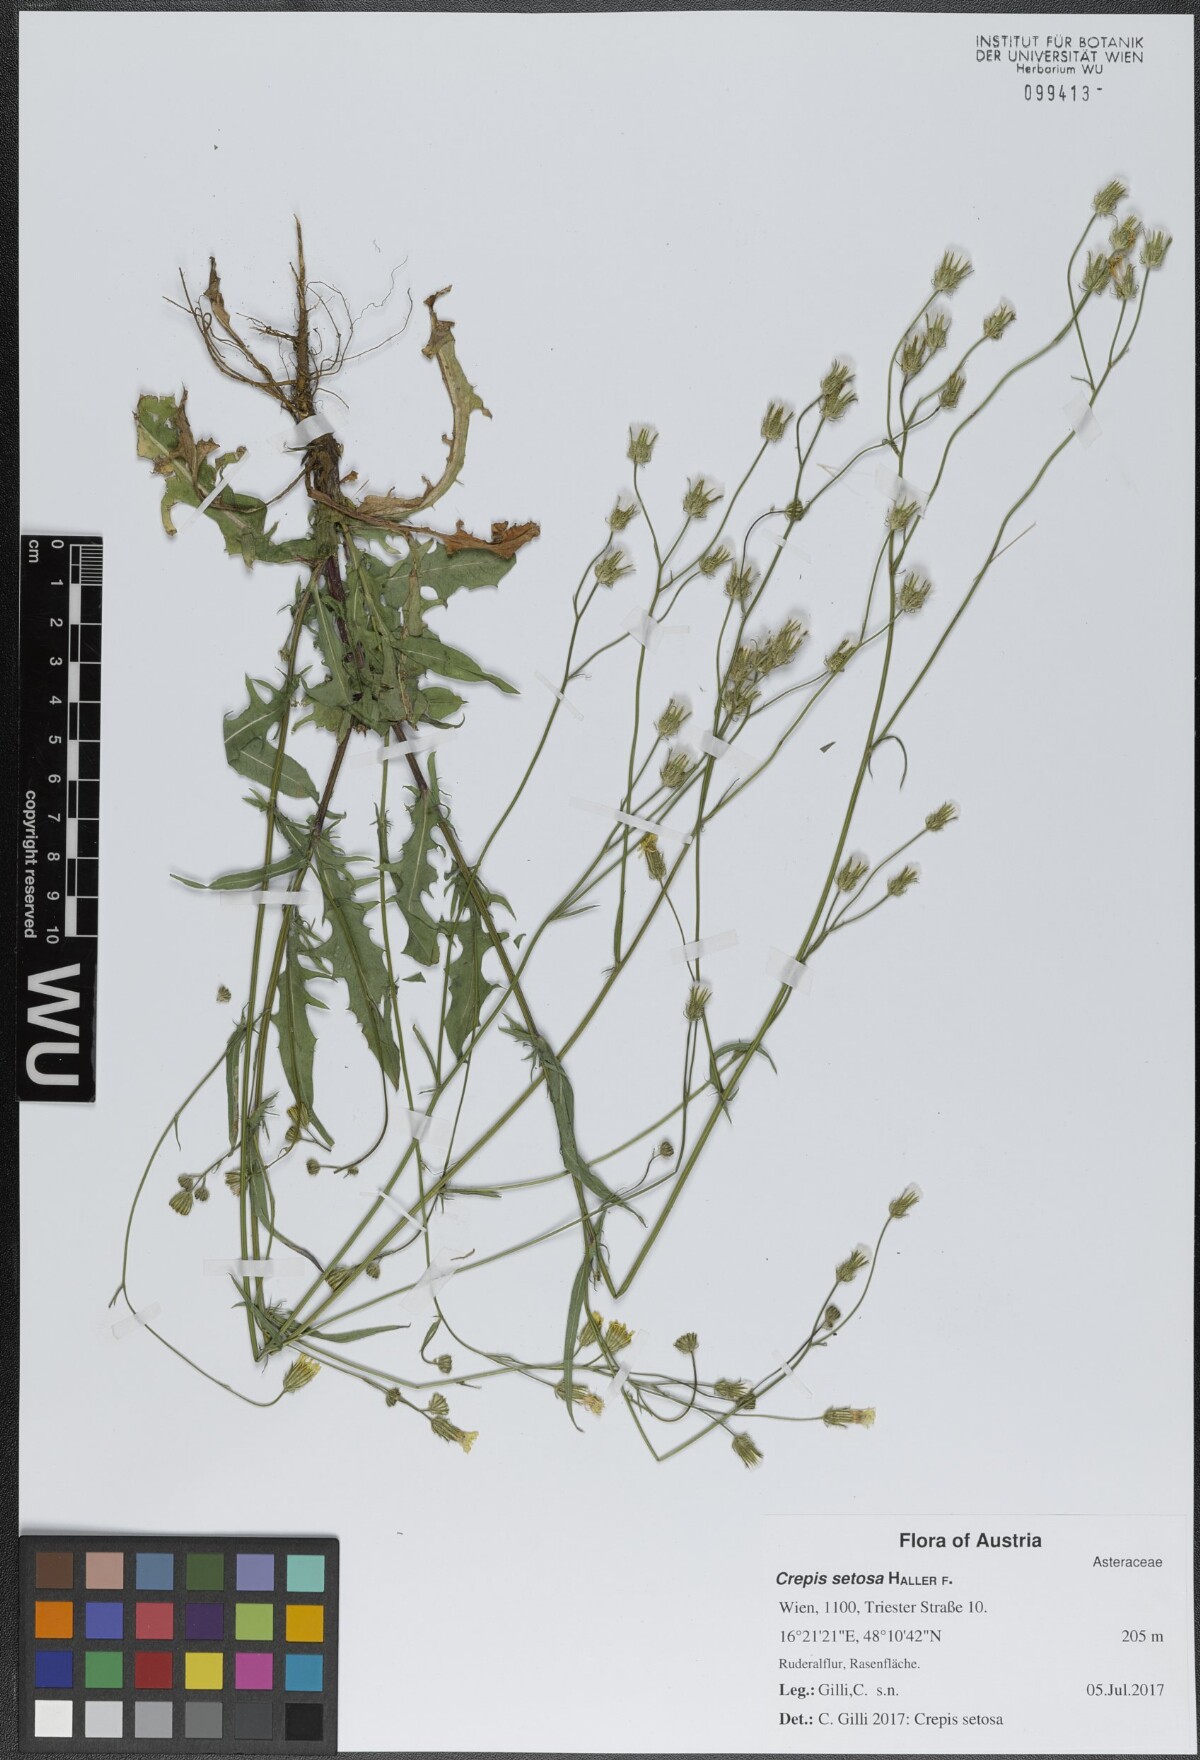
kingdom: Plantae
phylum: Tracheophyta
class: Magnoliopsida
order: Asterales
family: Asteraceae
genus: Crepis
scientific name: Crepis setosa
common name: Bristly hawk's-beard
